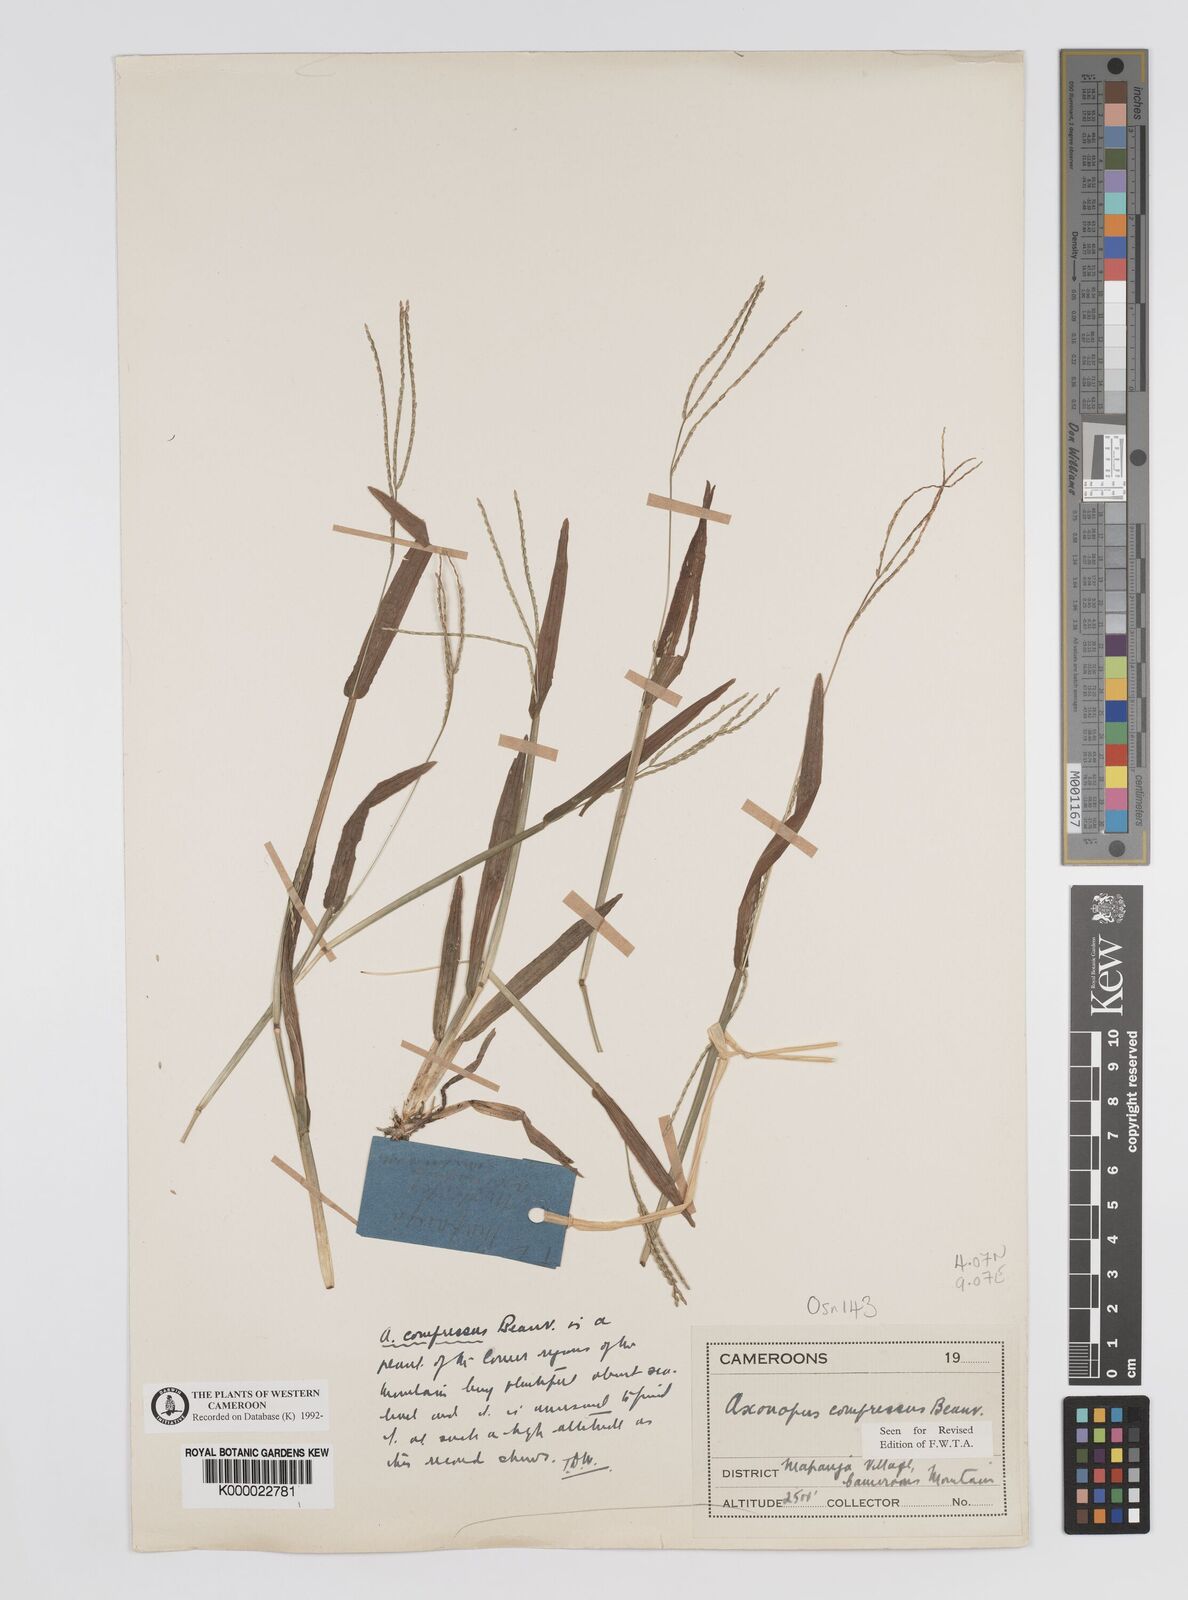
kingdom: Plantae
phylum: Tracheophyta
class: Liliopsida
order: Poales
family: Poaceae
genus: Axonopus
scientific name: Axonopus compressus
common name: American carpet grass
